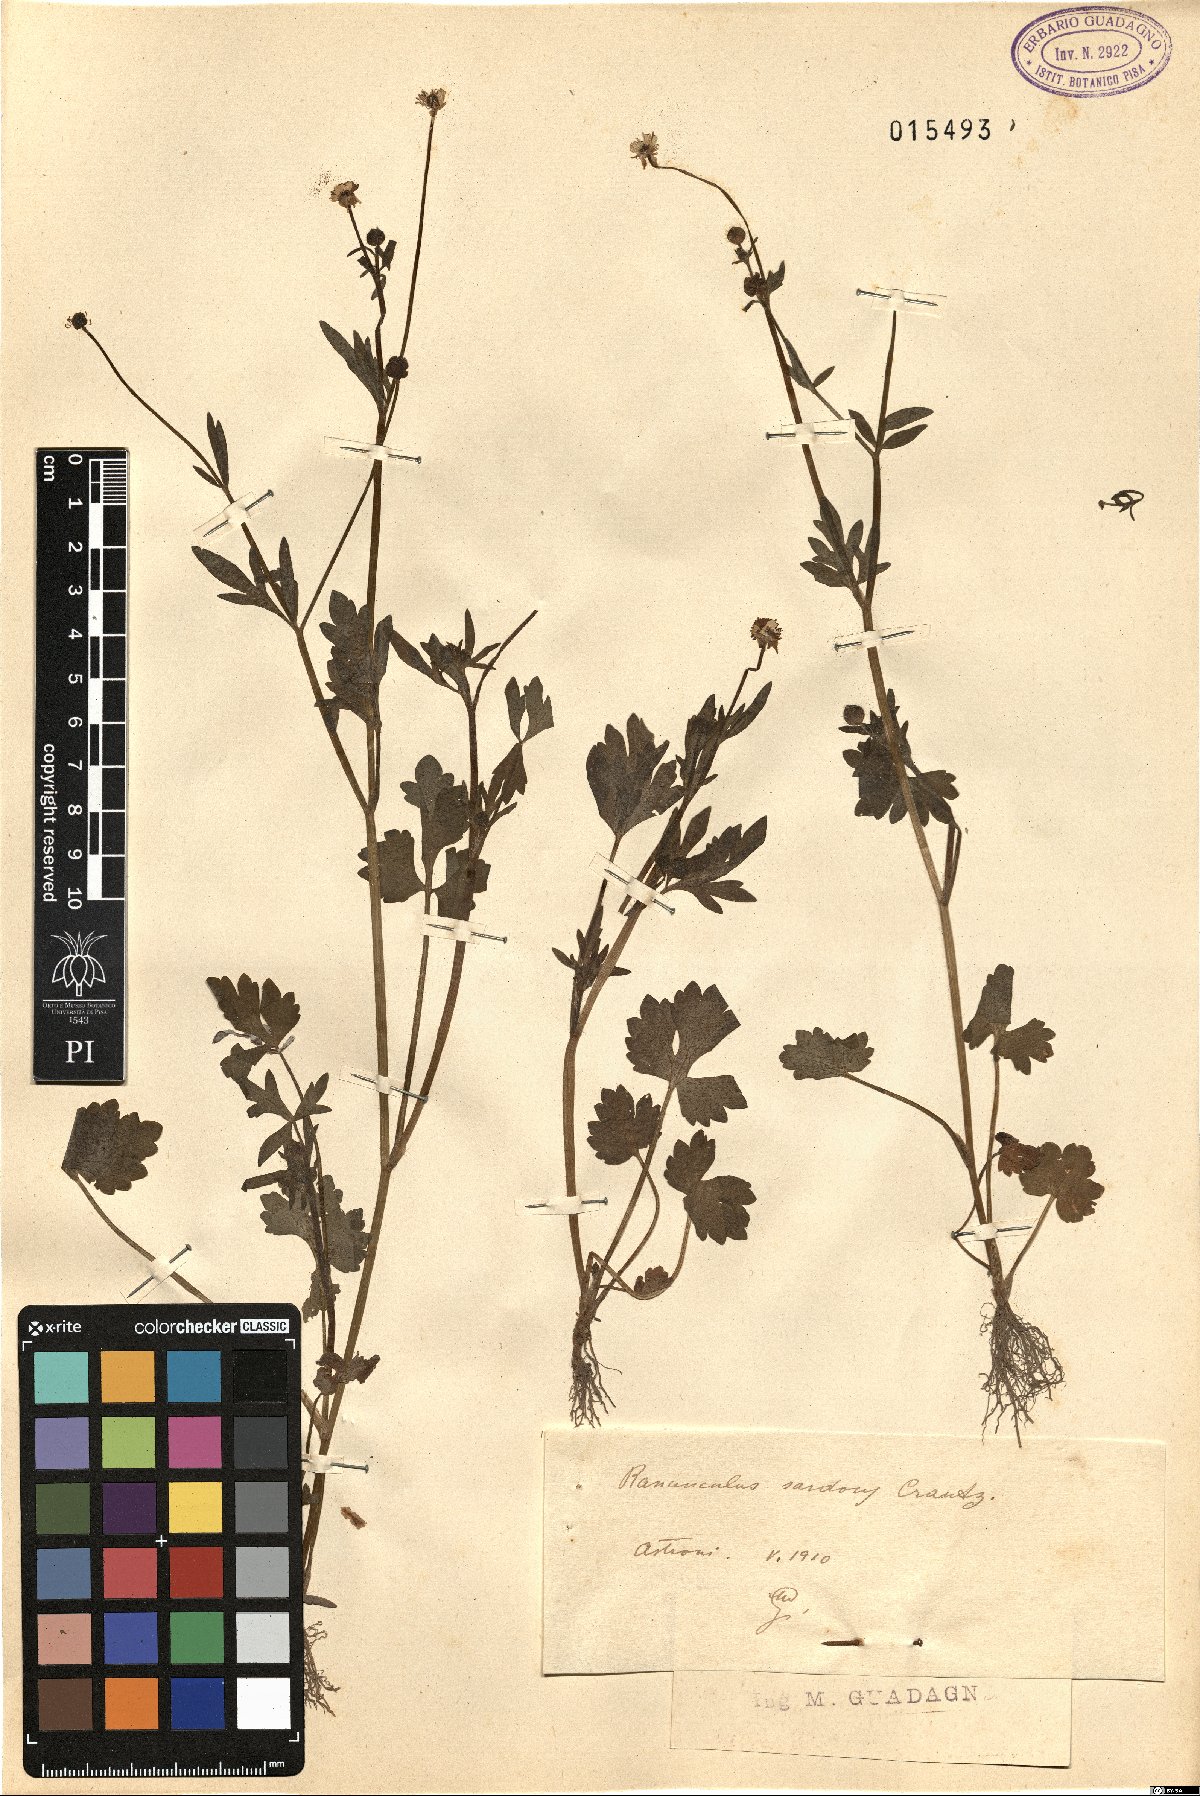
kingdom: Plantae
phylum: Tracheophyta
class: Magnoliopsida
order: Ranunculales
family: Ranunculaceae
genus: Ranunculus
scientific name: Ranunculus sardous
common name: Hairy buttercup
